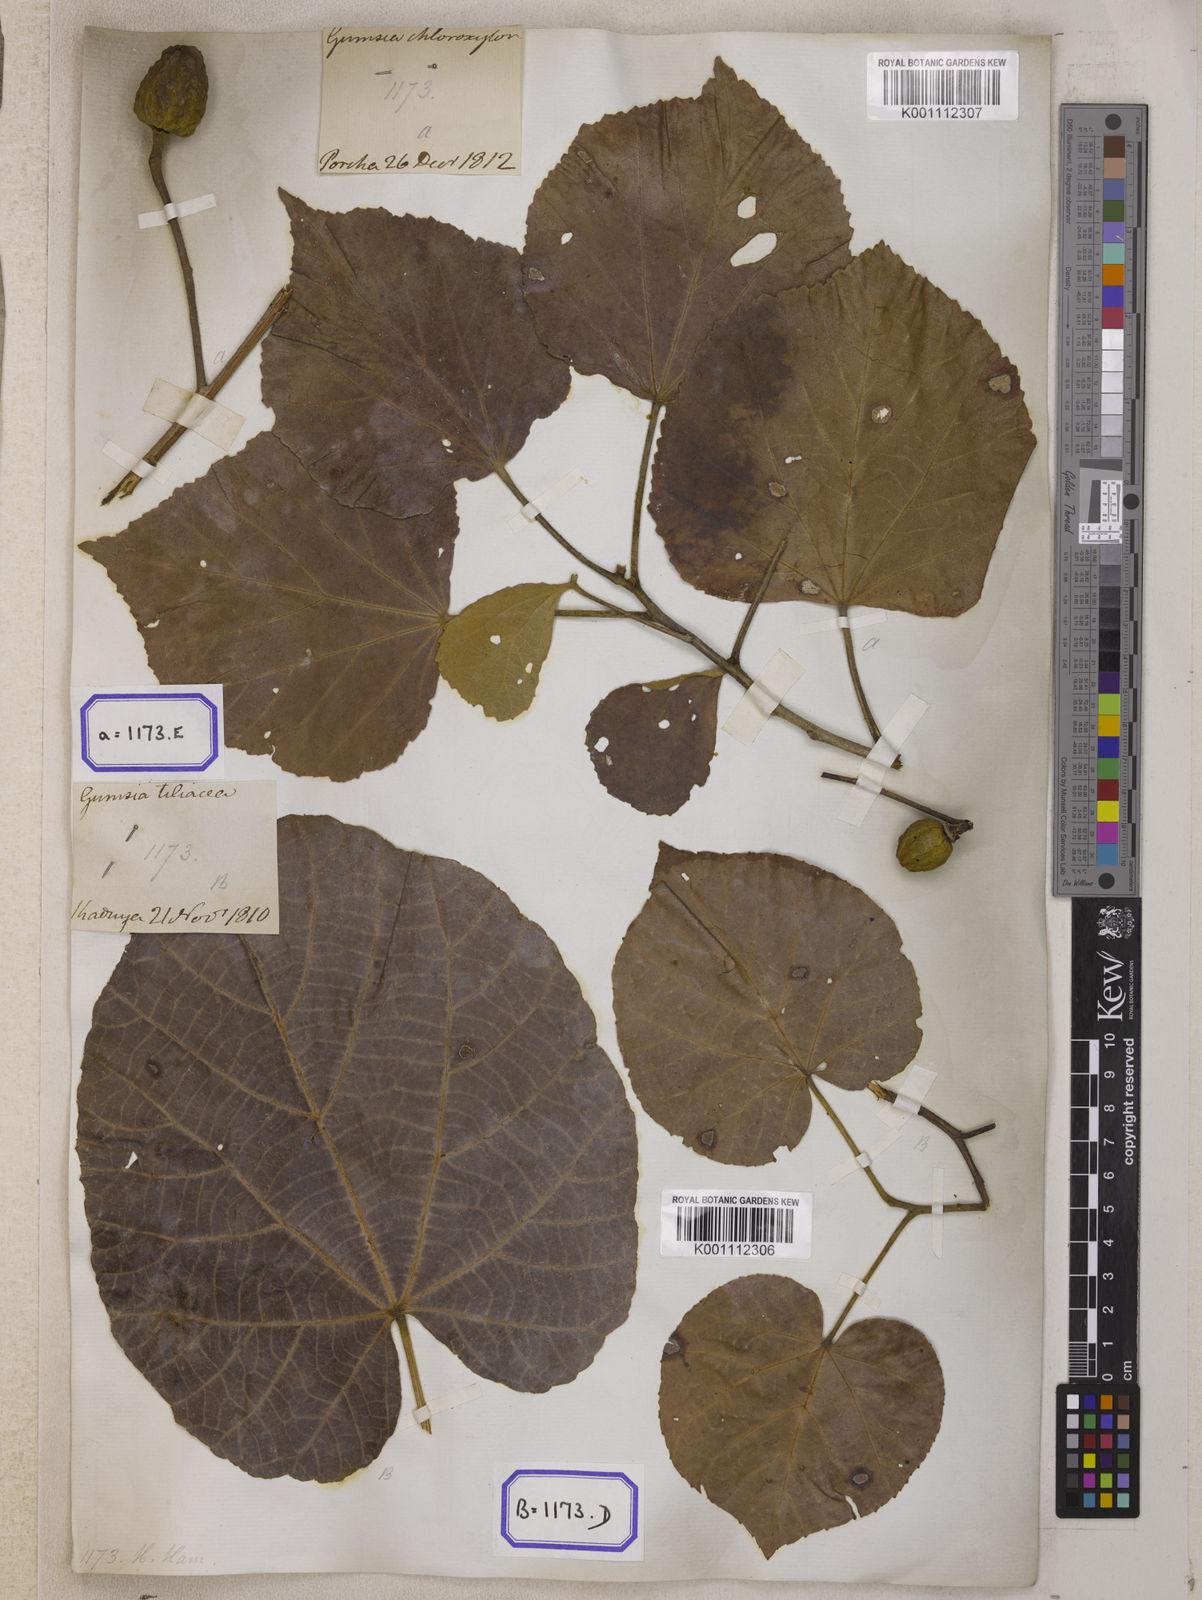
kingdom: Plantae
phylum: Tracheophyta
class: Liliopsida
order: Poales
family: Poaceae
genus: Microlaena
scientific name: Microlaena
